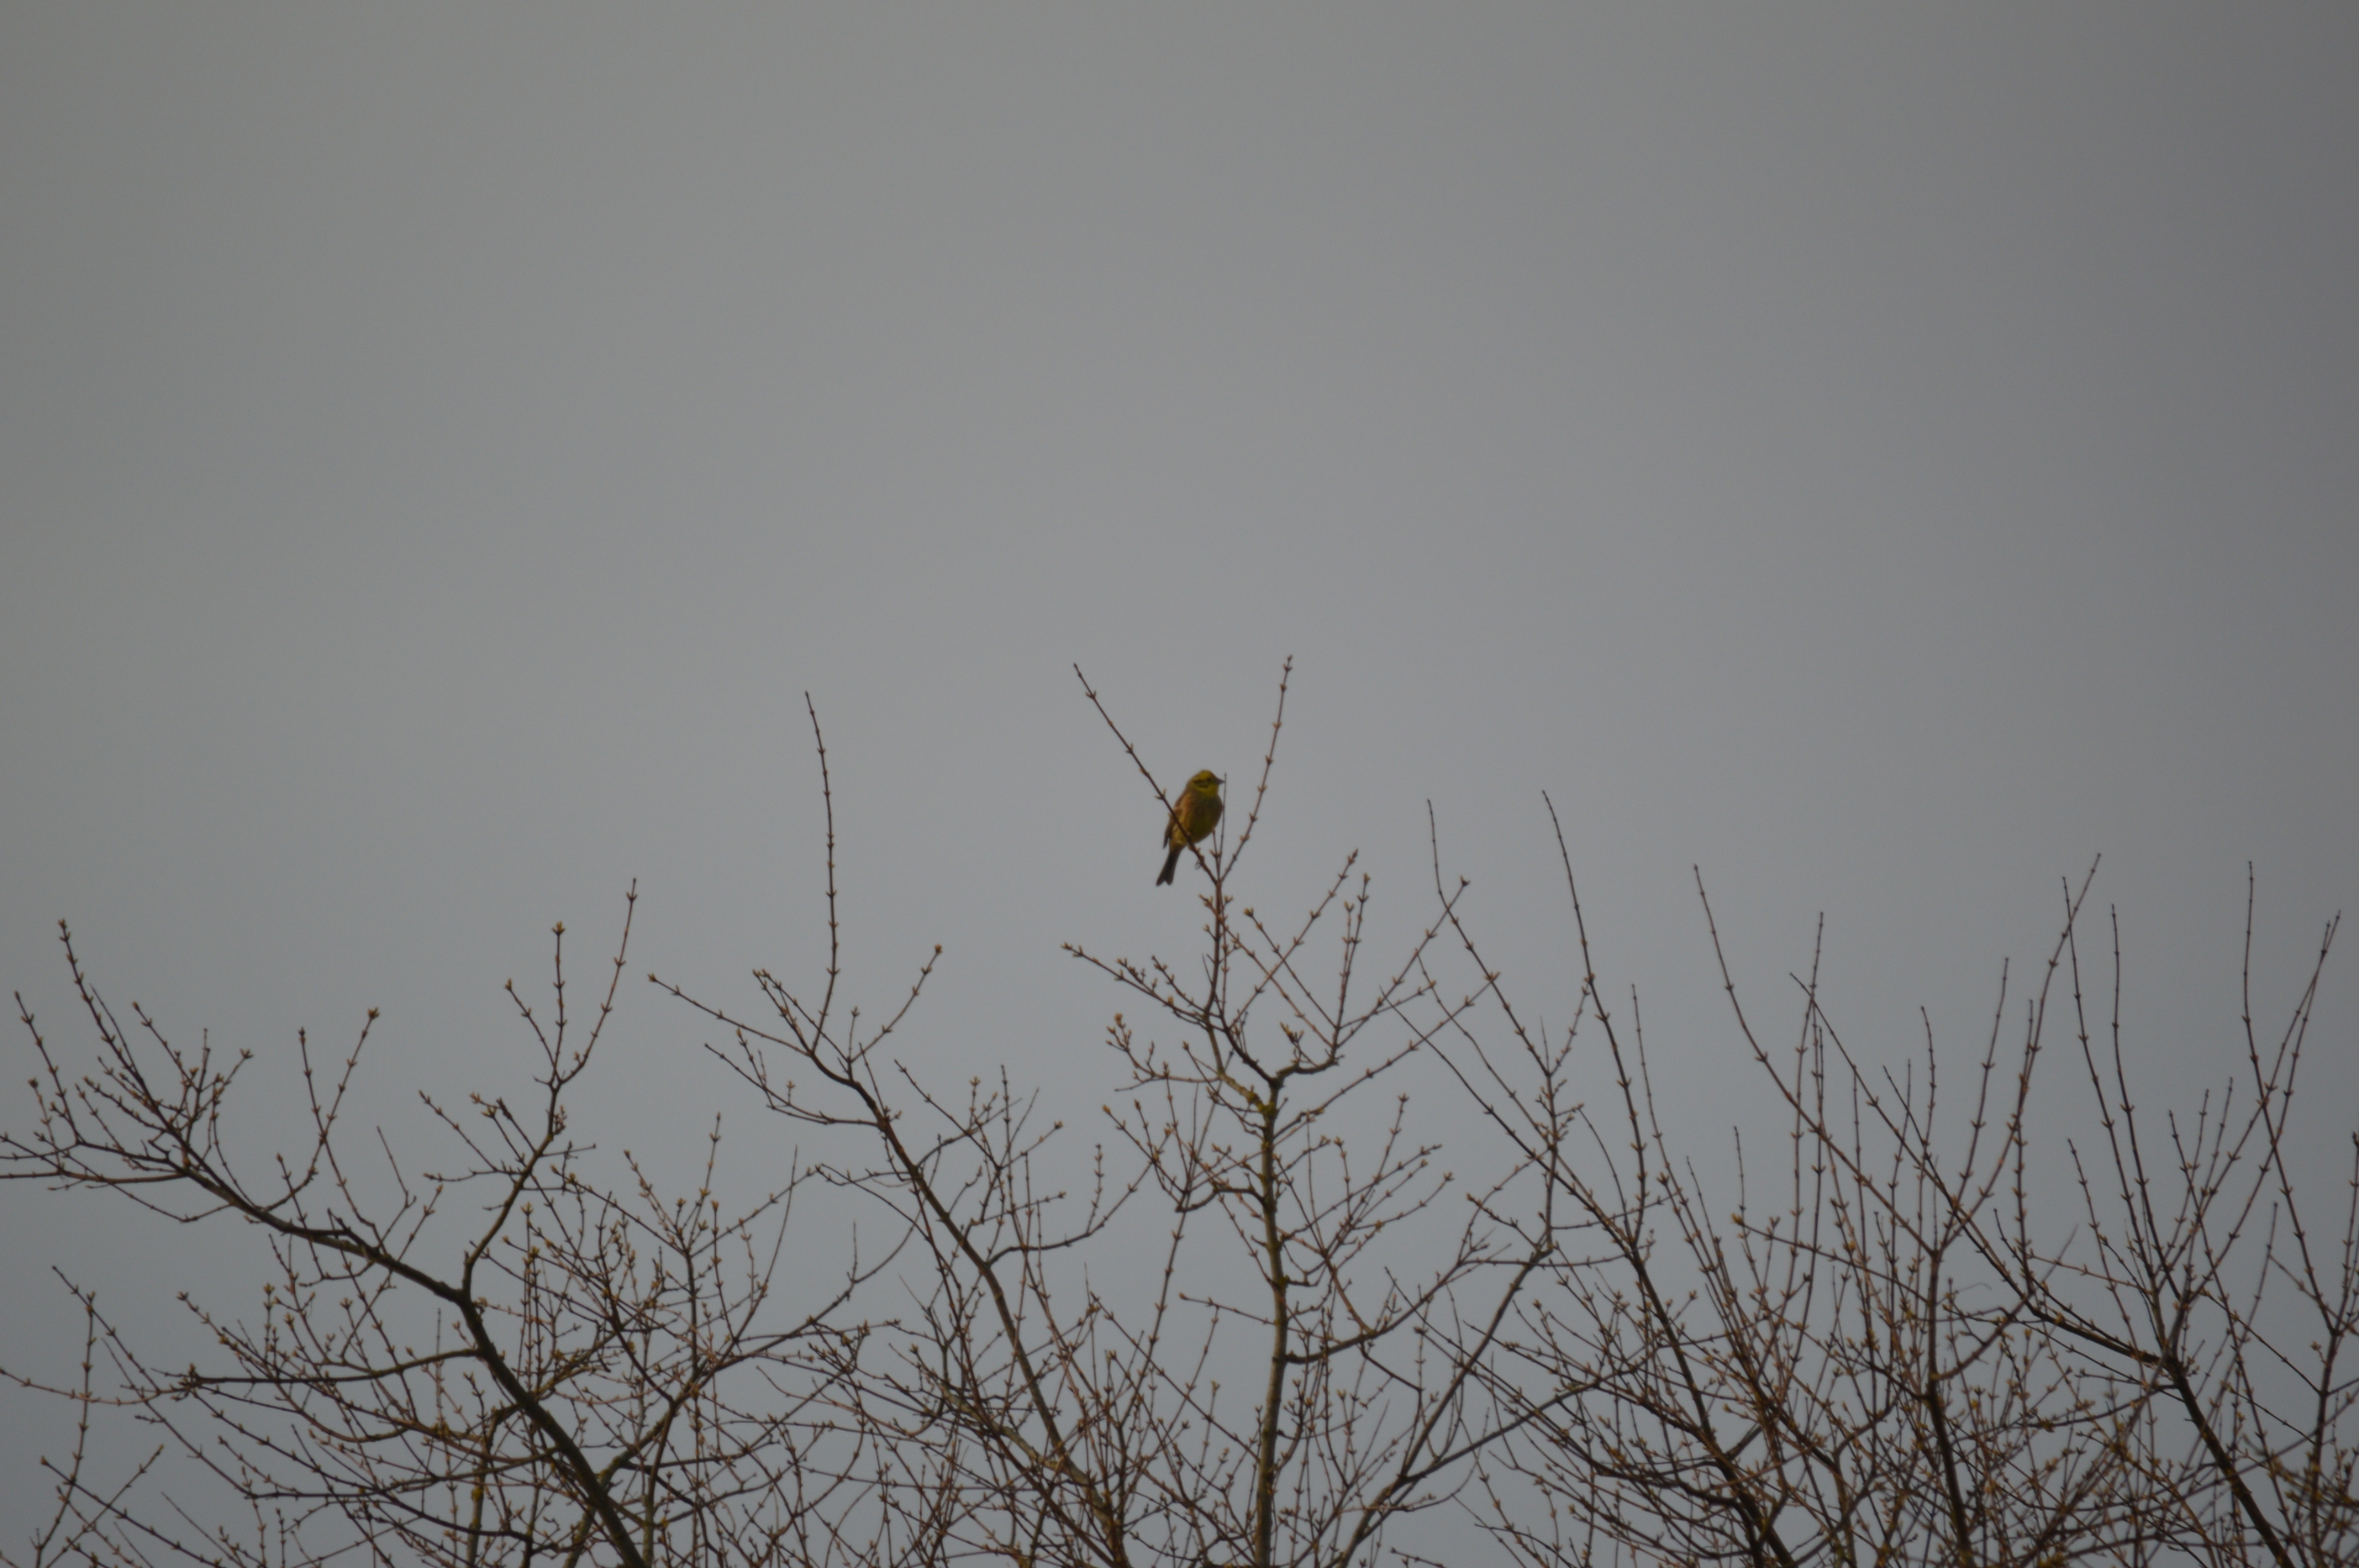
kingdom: Animalia
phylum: Chordata
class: Aves
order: Passeriformes
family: Emberizidae
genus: Emberiza
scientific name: Emberiza citrinella
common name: Gulspurv
